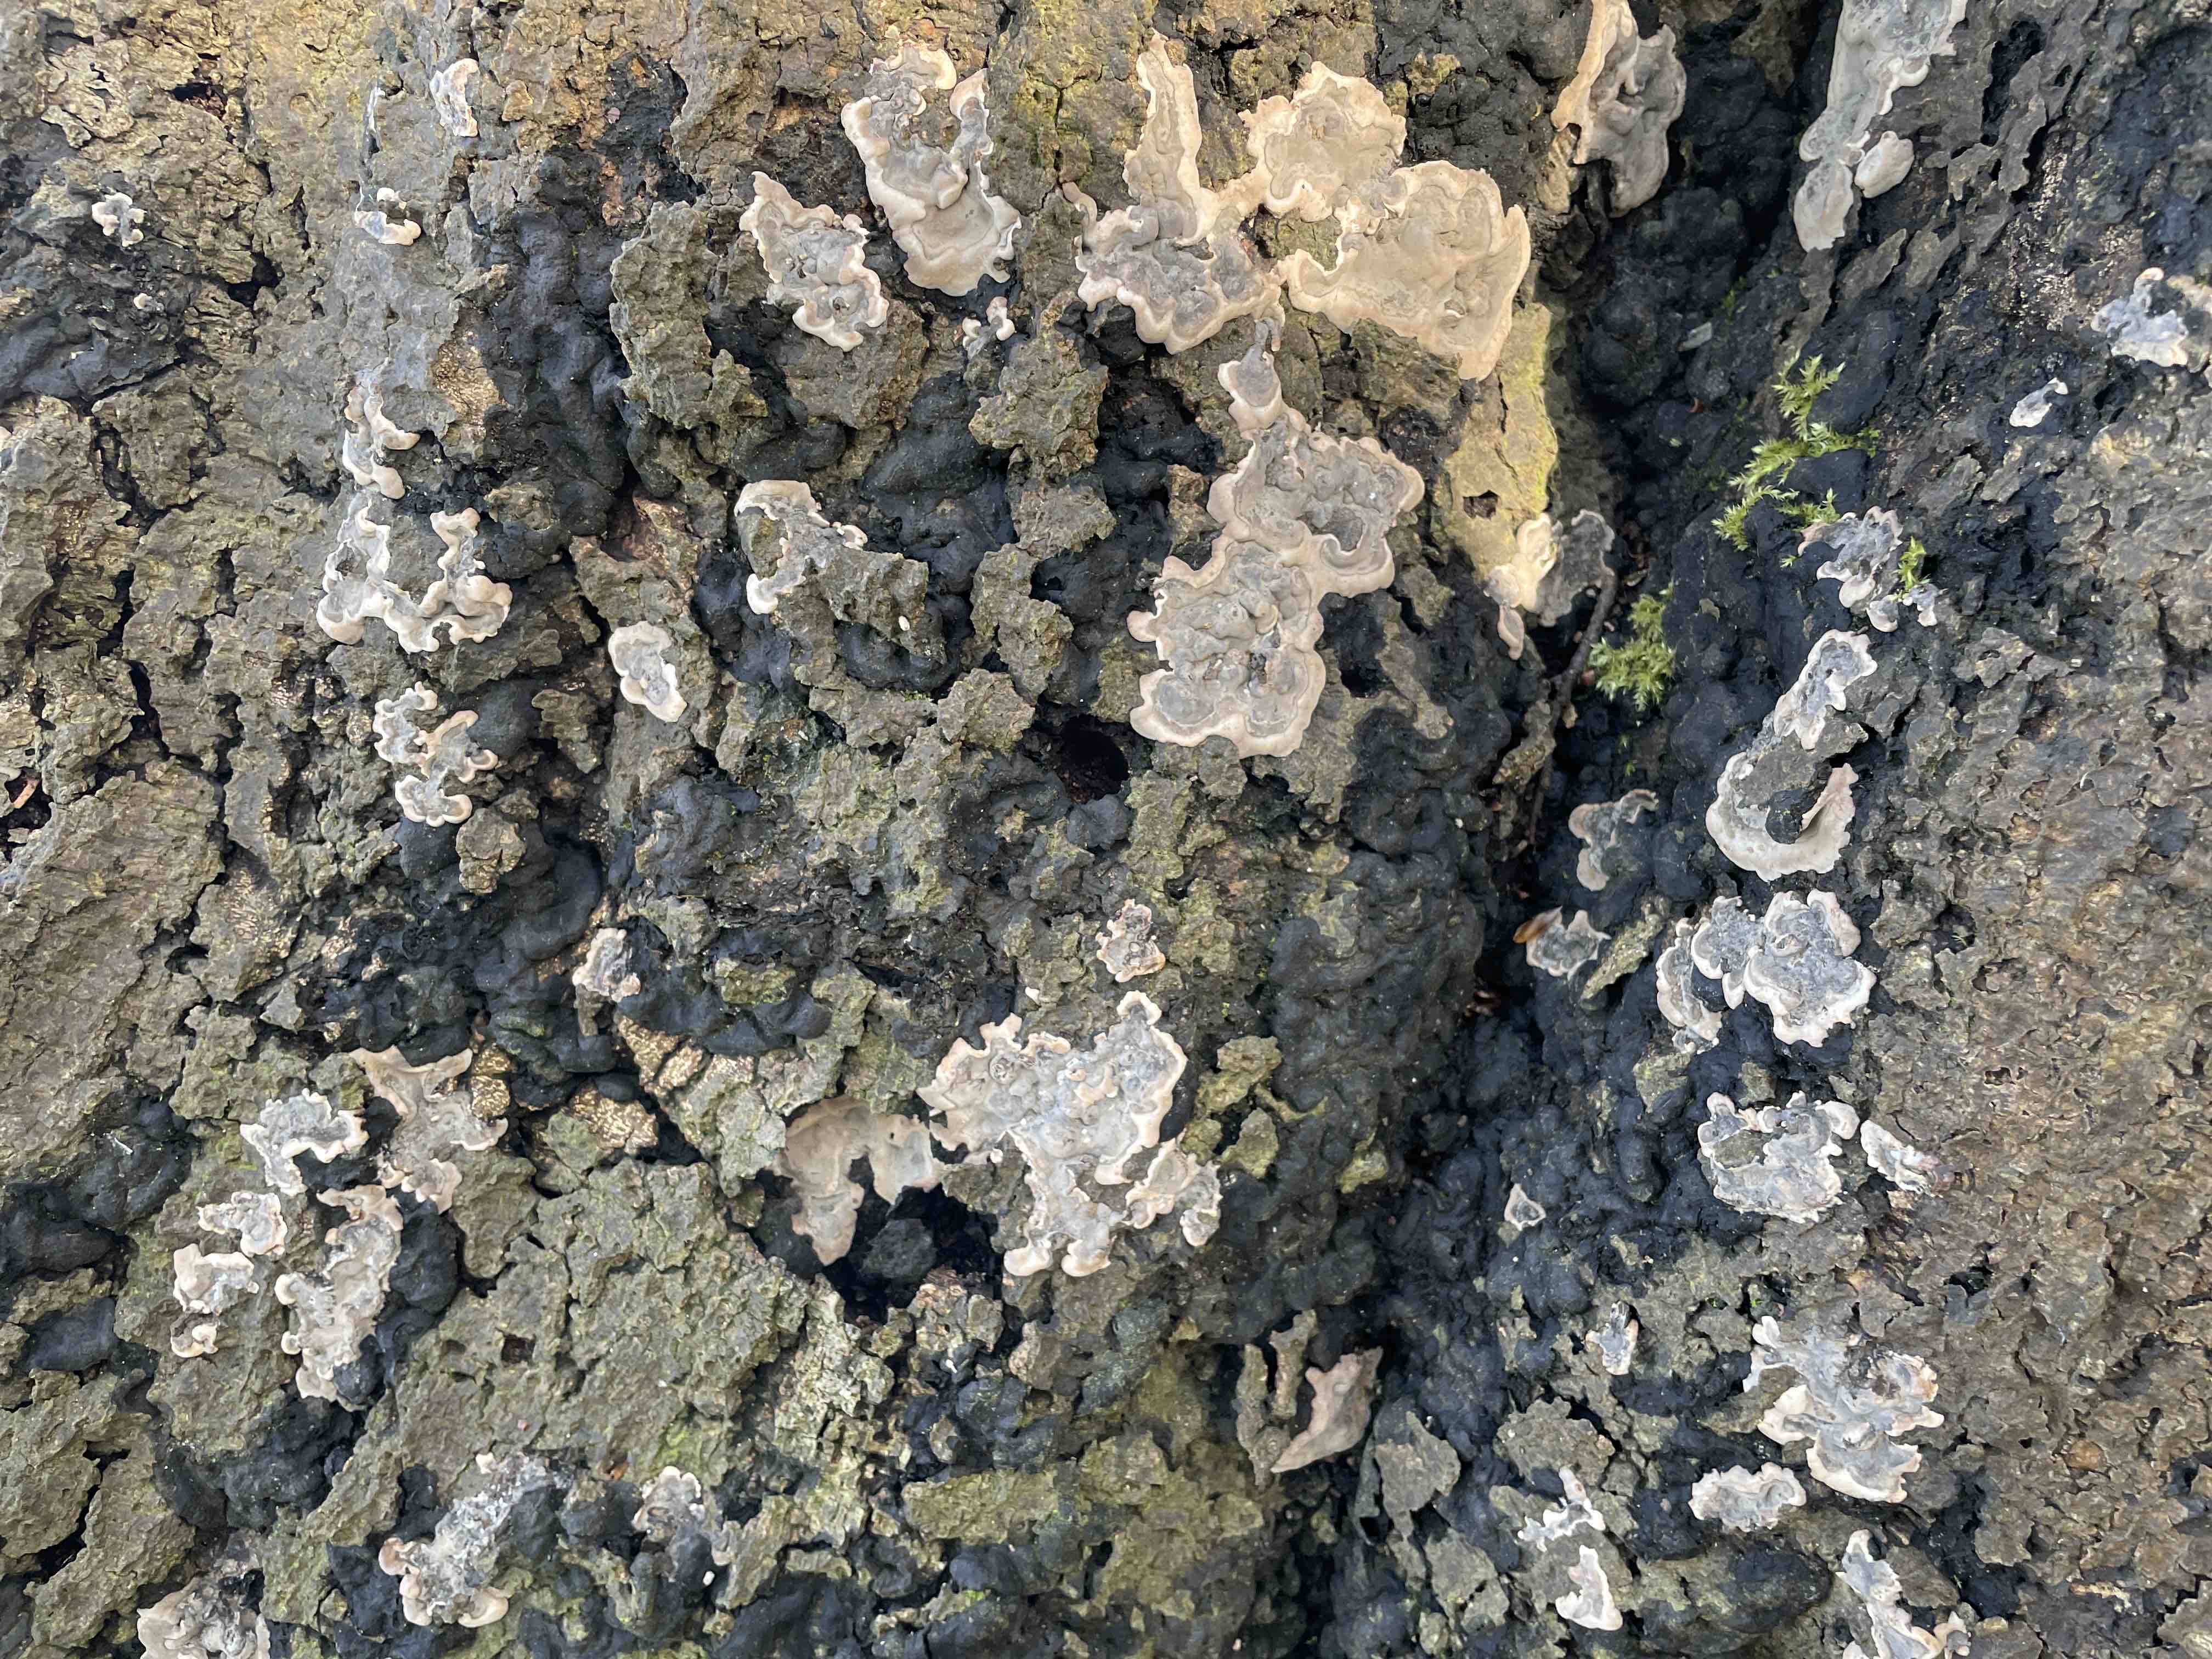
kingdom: Fungi
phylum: Ascomycota
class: Sordariomycetes
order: Xylariales
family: Xylariaceae
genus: Kretzschmaria
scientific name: Kretzschmaria deusta
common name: stor kulsvamp
